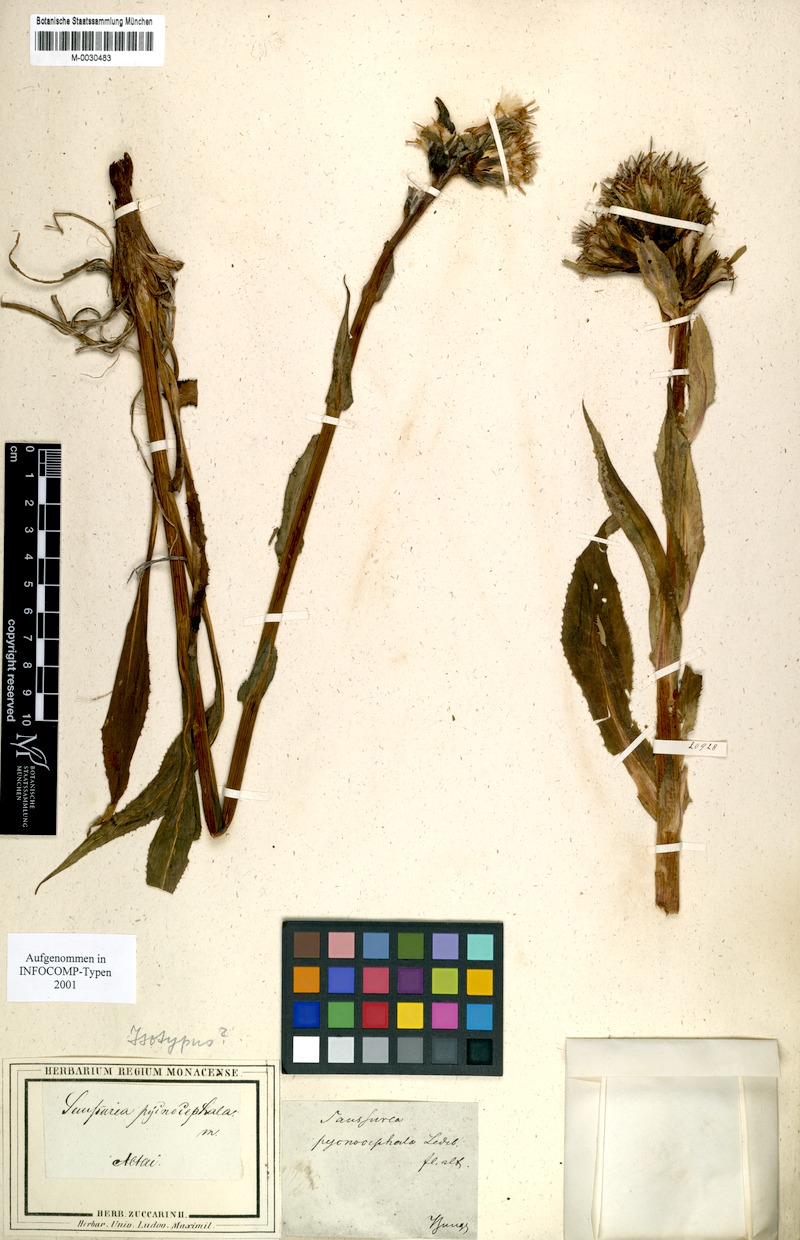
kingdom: Plantae
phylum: Tracheophyta
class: Magnoliopsida
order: Asterales
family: Asteraceae
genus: Saussurea
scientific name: Saussurea baicalensis
